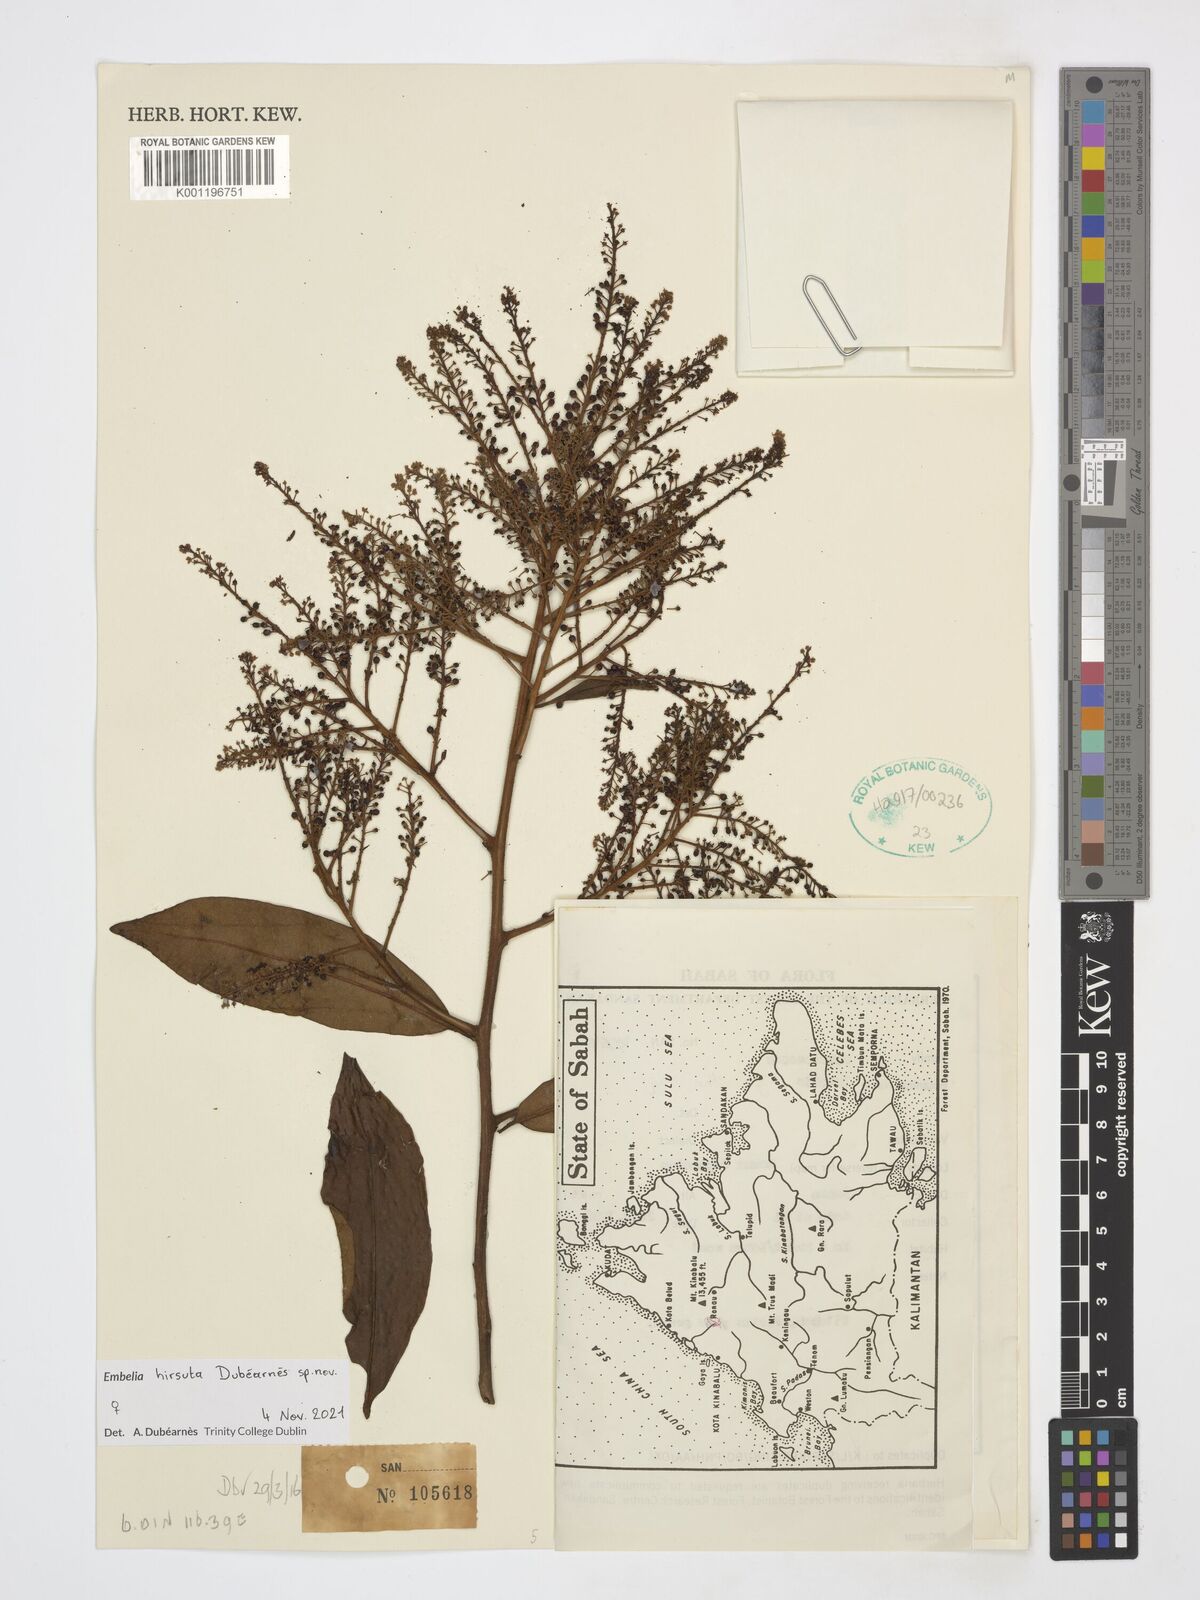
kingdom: Plantae
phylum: Tracheophyta
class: Magnoliopsida
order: Ericales
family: Primulaceae
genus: Embelia
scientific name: Embelia
